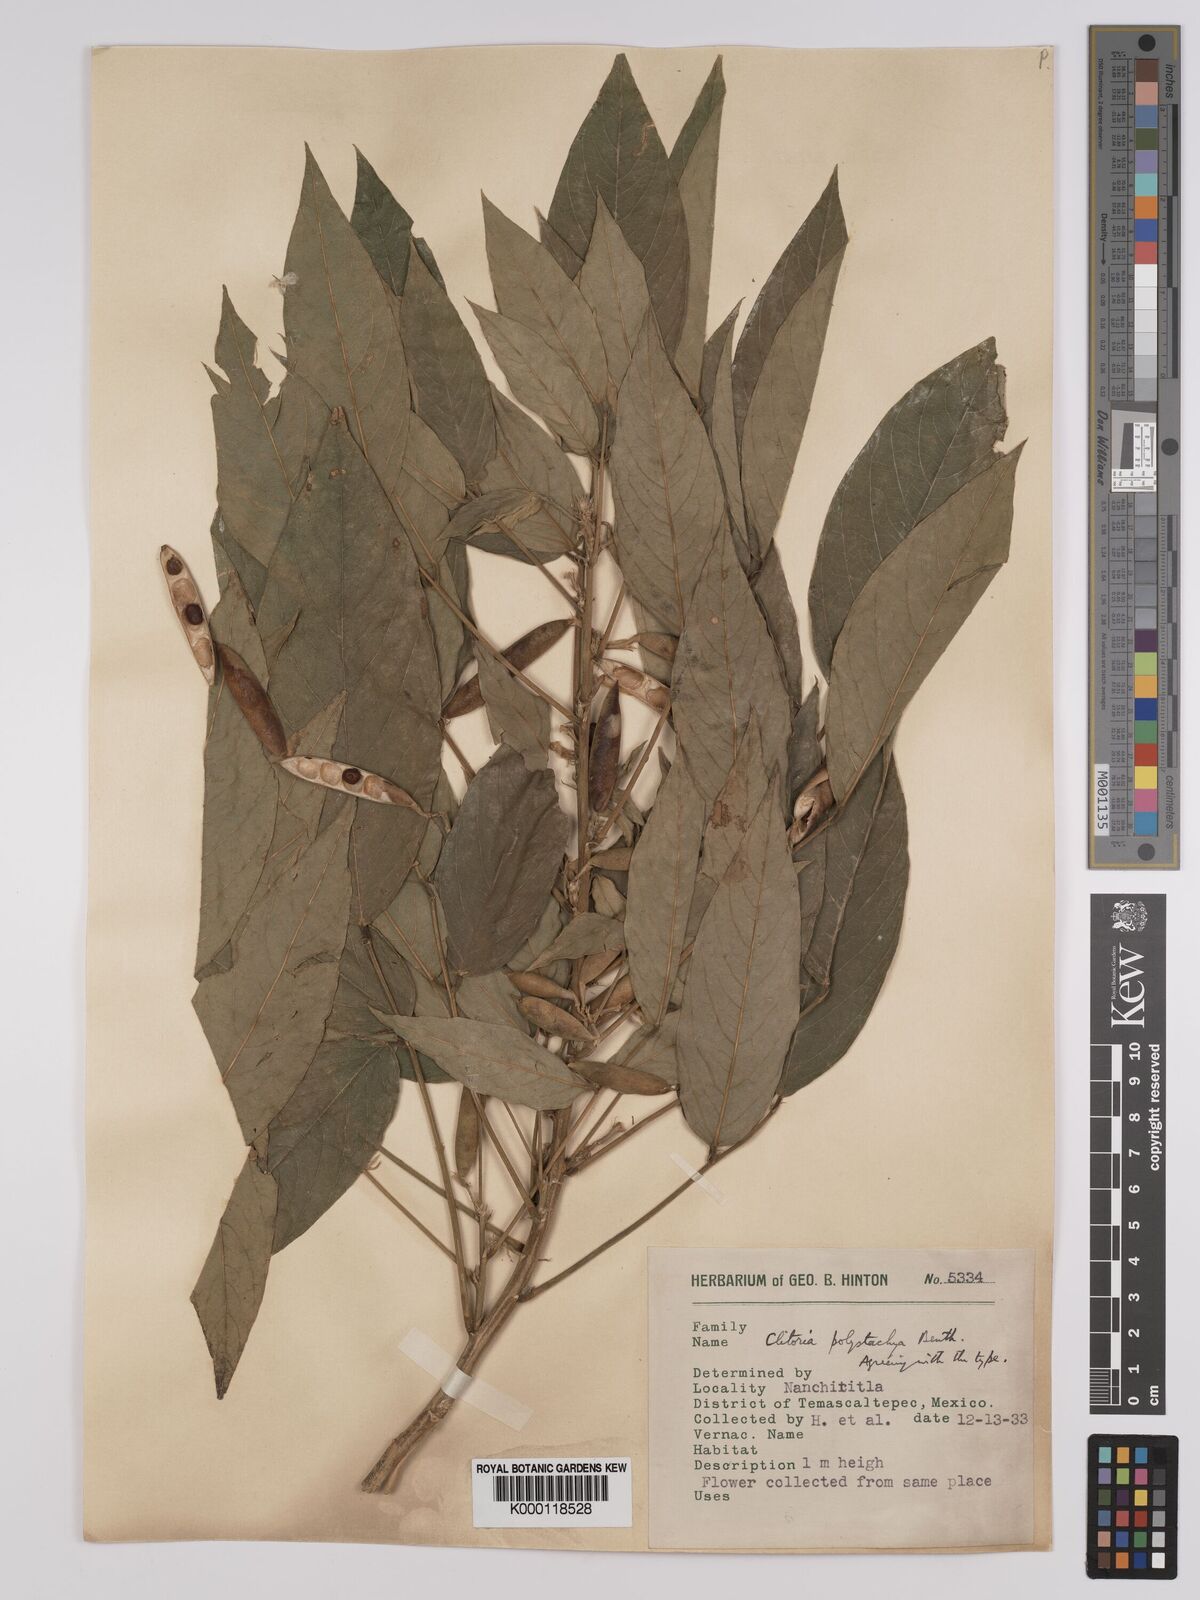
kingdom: Plantae
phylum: Tracheophyta
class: Magnoliopsida
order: Fabales
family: Fabaceae
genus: Clitoria
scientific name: Clitoria polystachya
